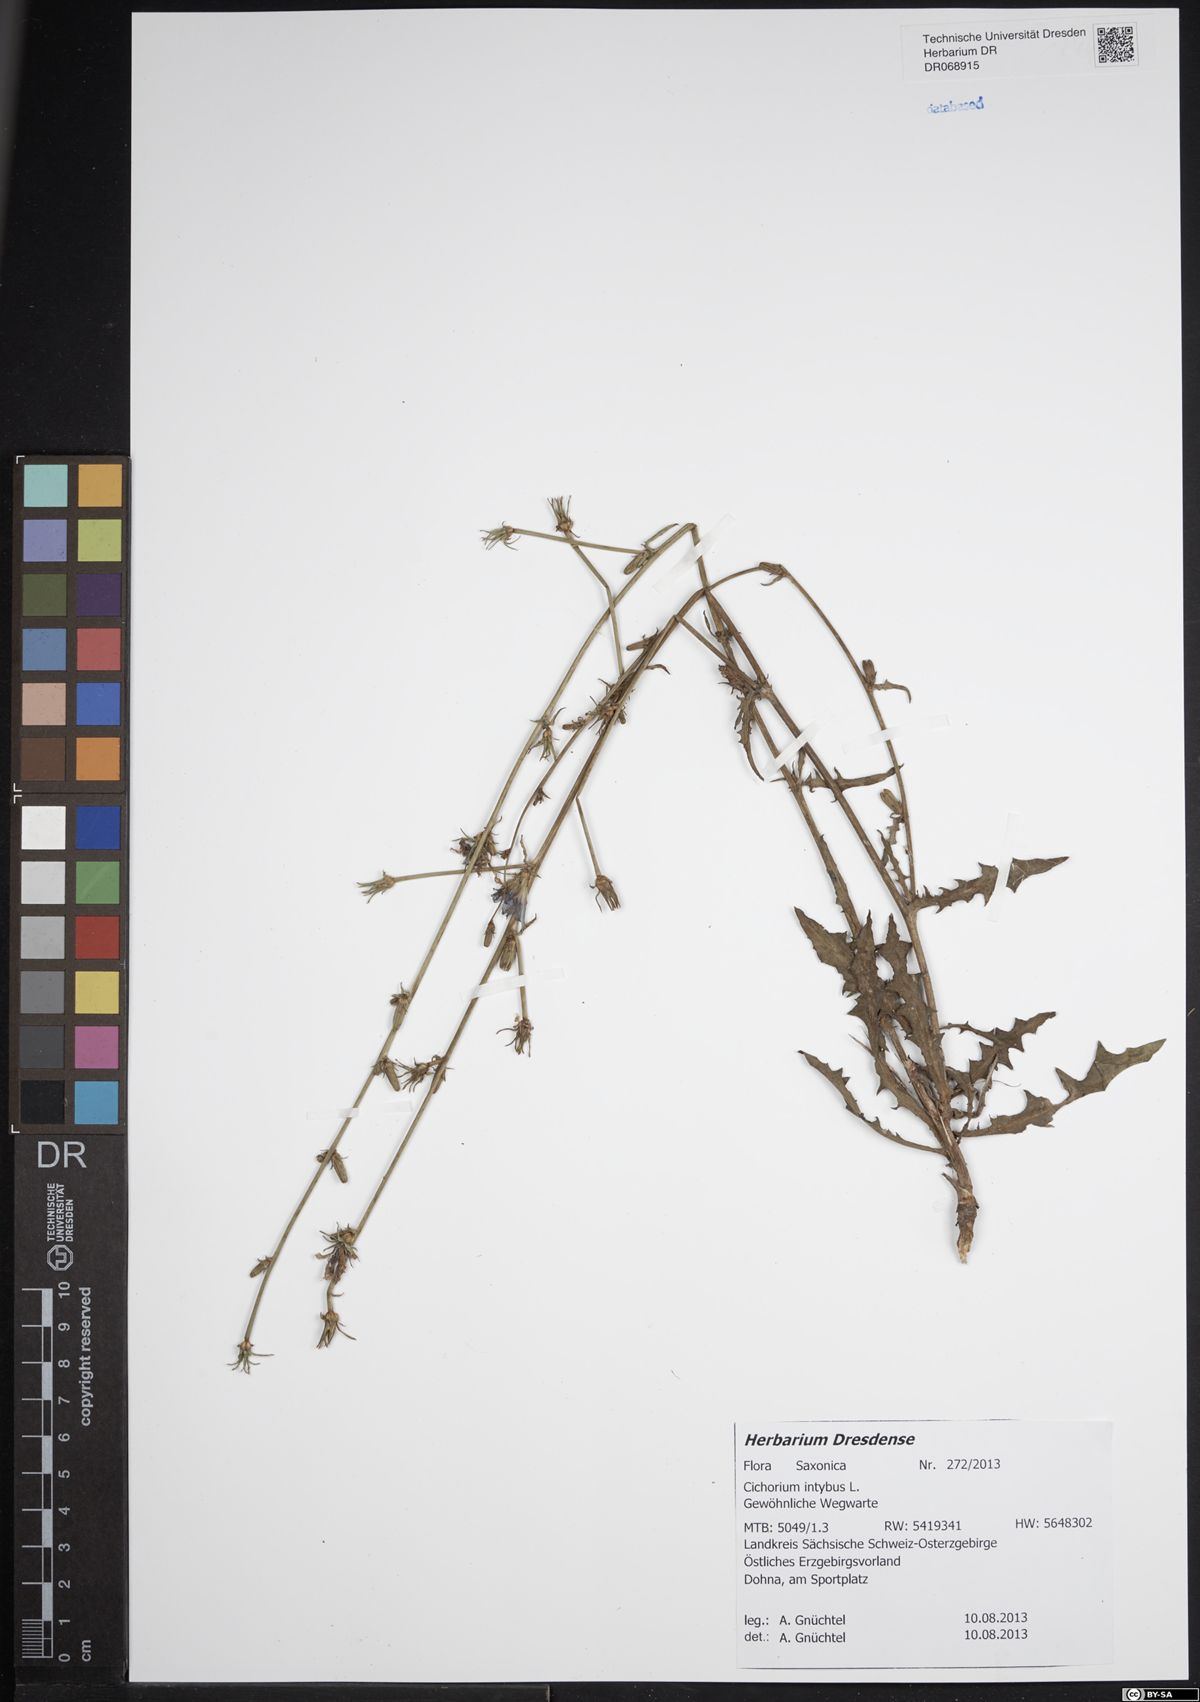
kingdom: Plantae
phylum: Tracheophyta
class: Magnoliopsida
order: Asterales
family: Asteraceae
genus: Cichorium
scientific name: Cichorium intybus
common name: Chicory
